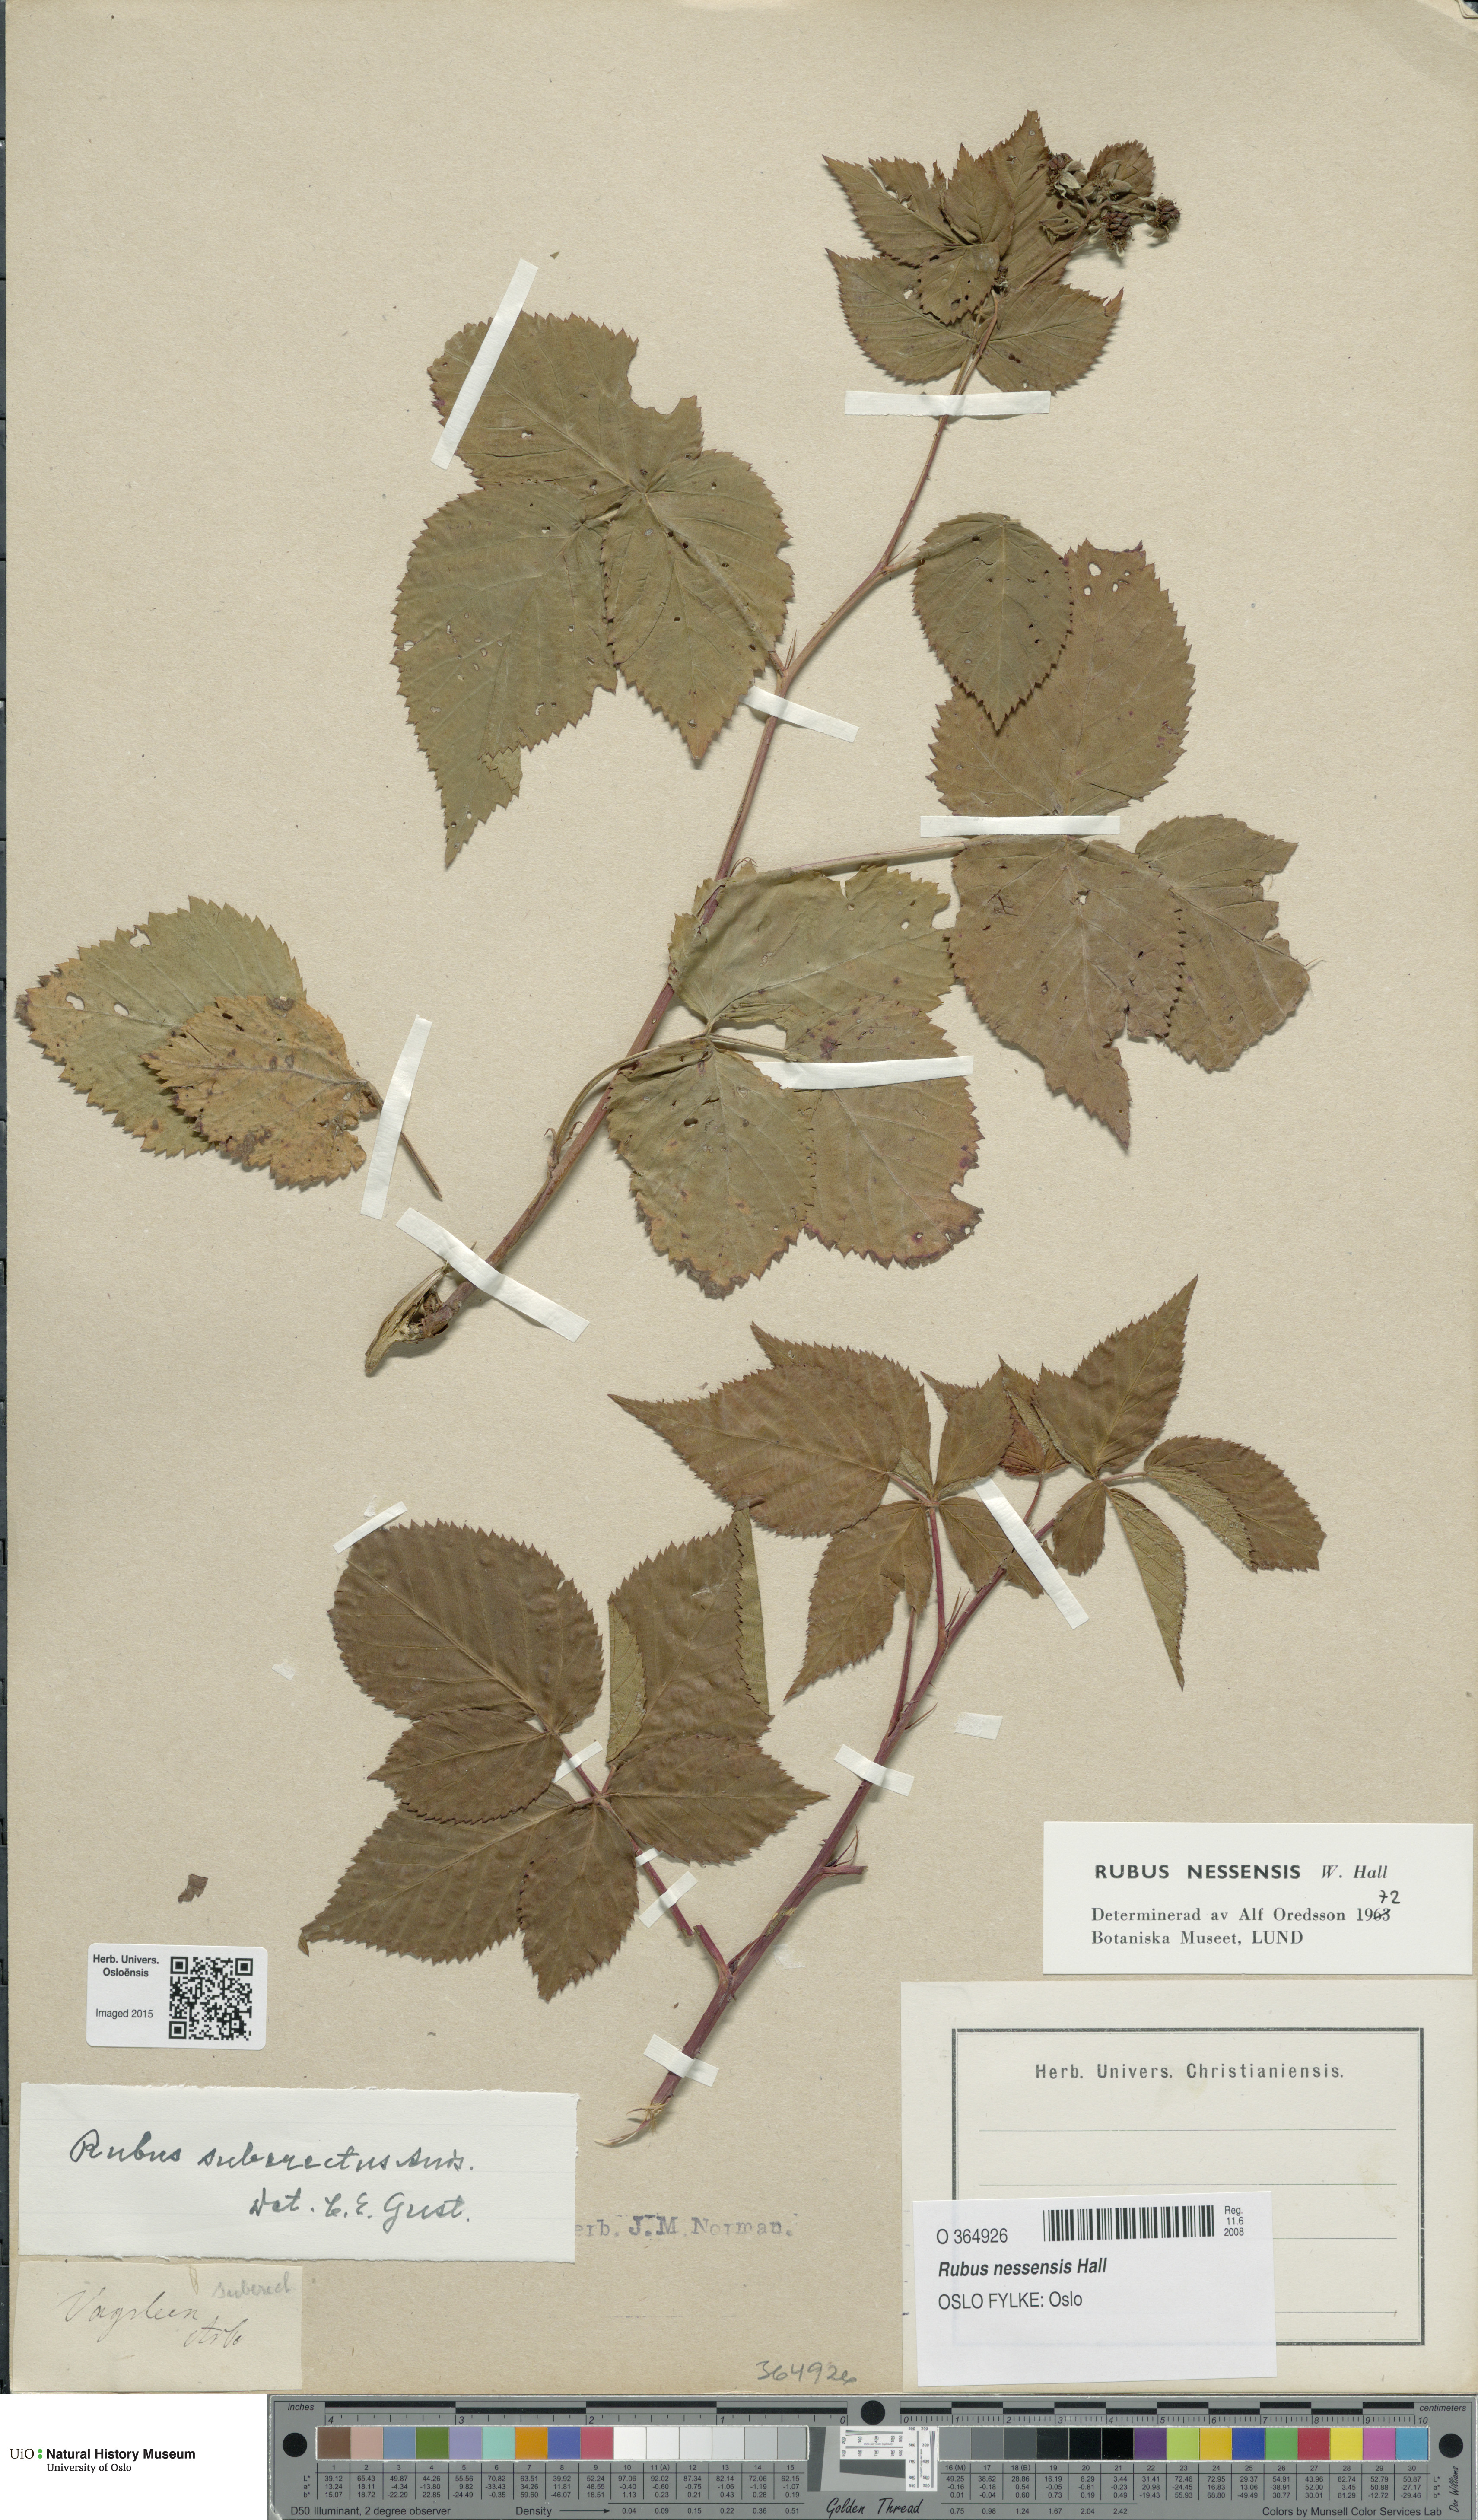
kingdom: Plantae
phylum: Tracheophyta
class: Magnoliopsida
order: Rosales
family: Rosaceae
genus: Rubus
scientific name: Rubus polonicus
